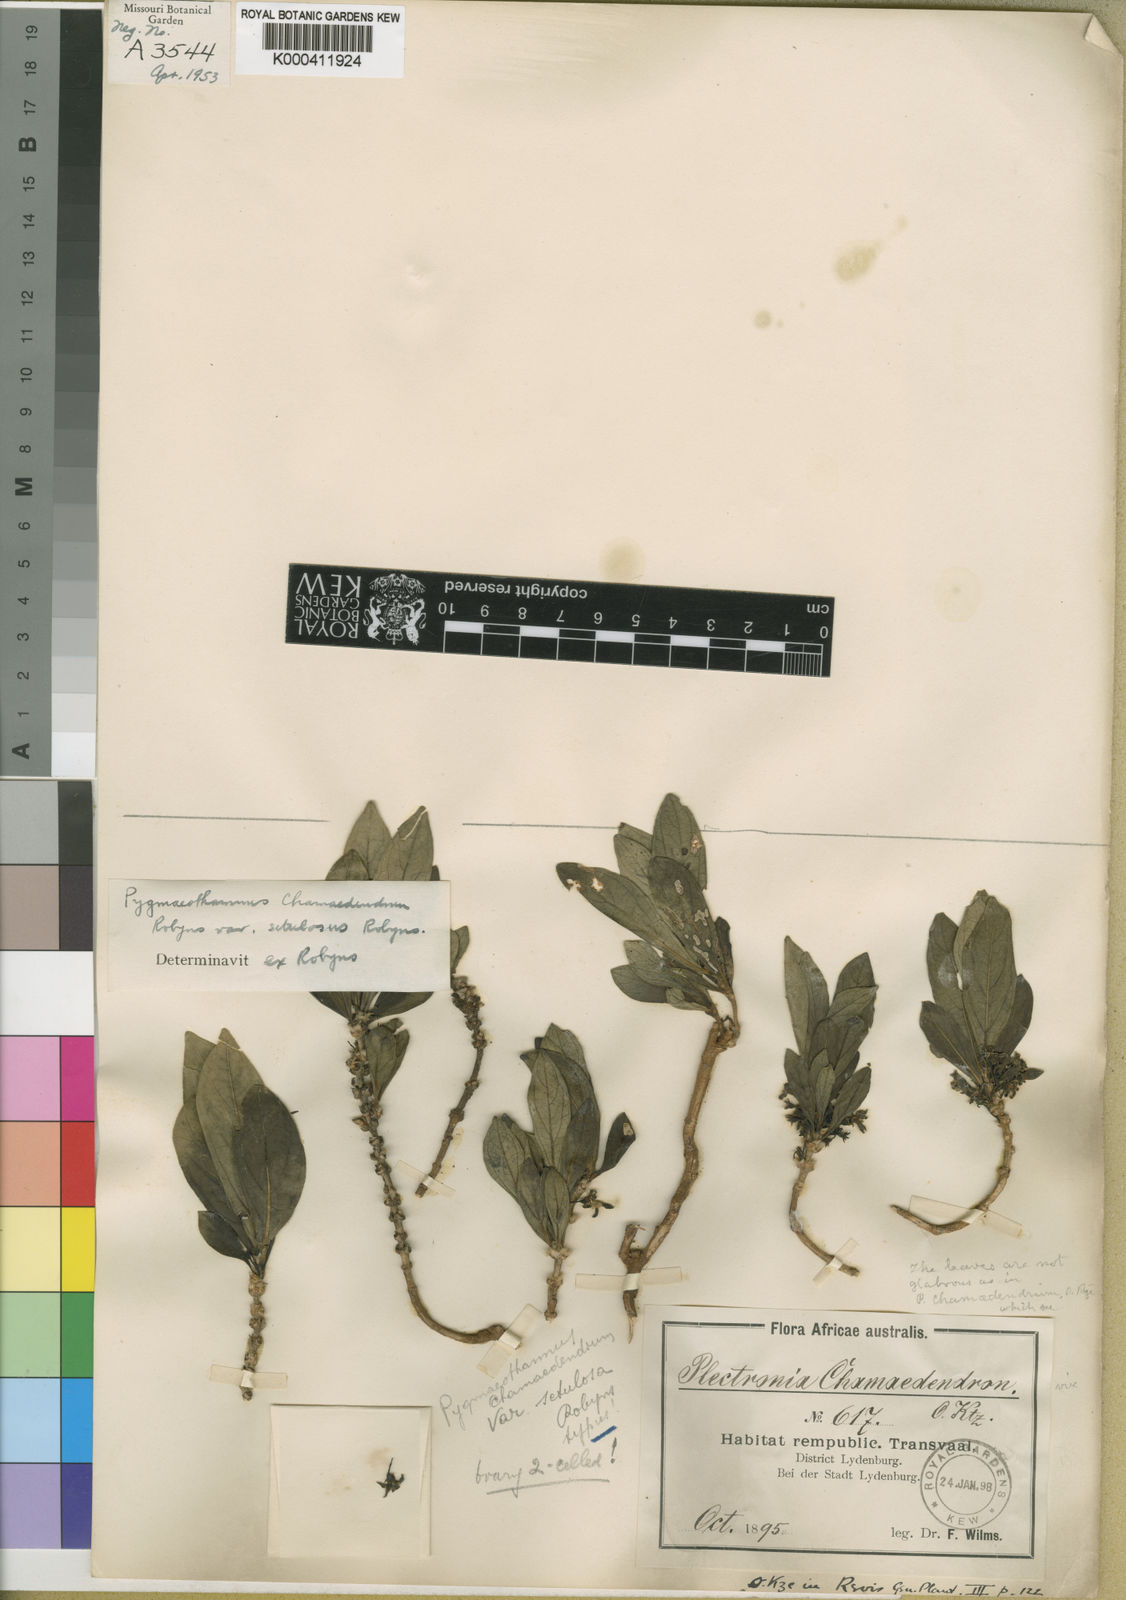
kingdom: Plantae
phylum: Tracheophyta
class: Magnoliopsida
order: Gentianales
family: Rubiaceae
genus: Pygmaeothamnus
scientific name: Pygmaeothamnus
